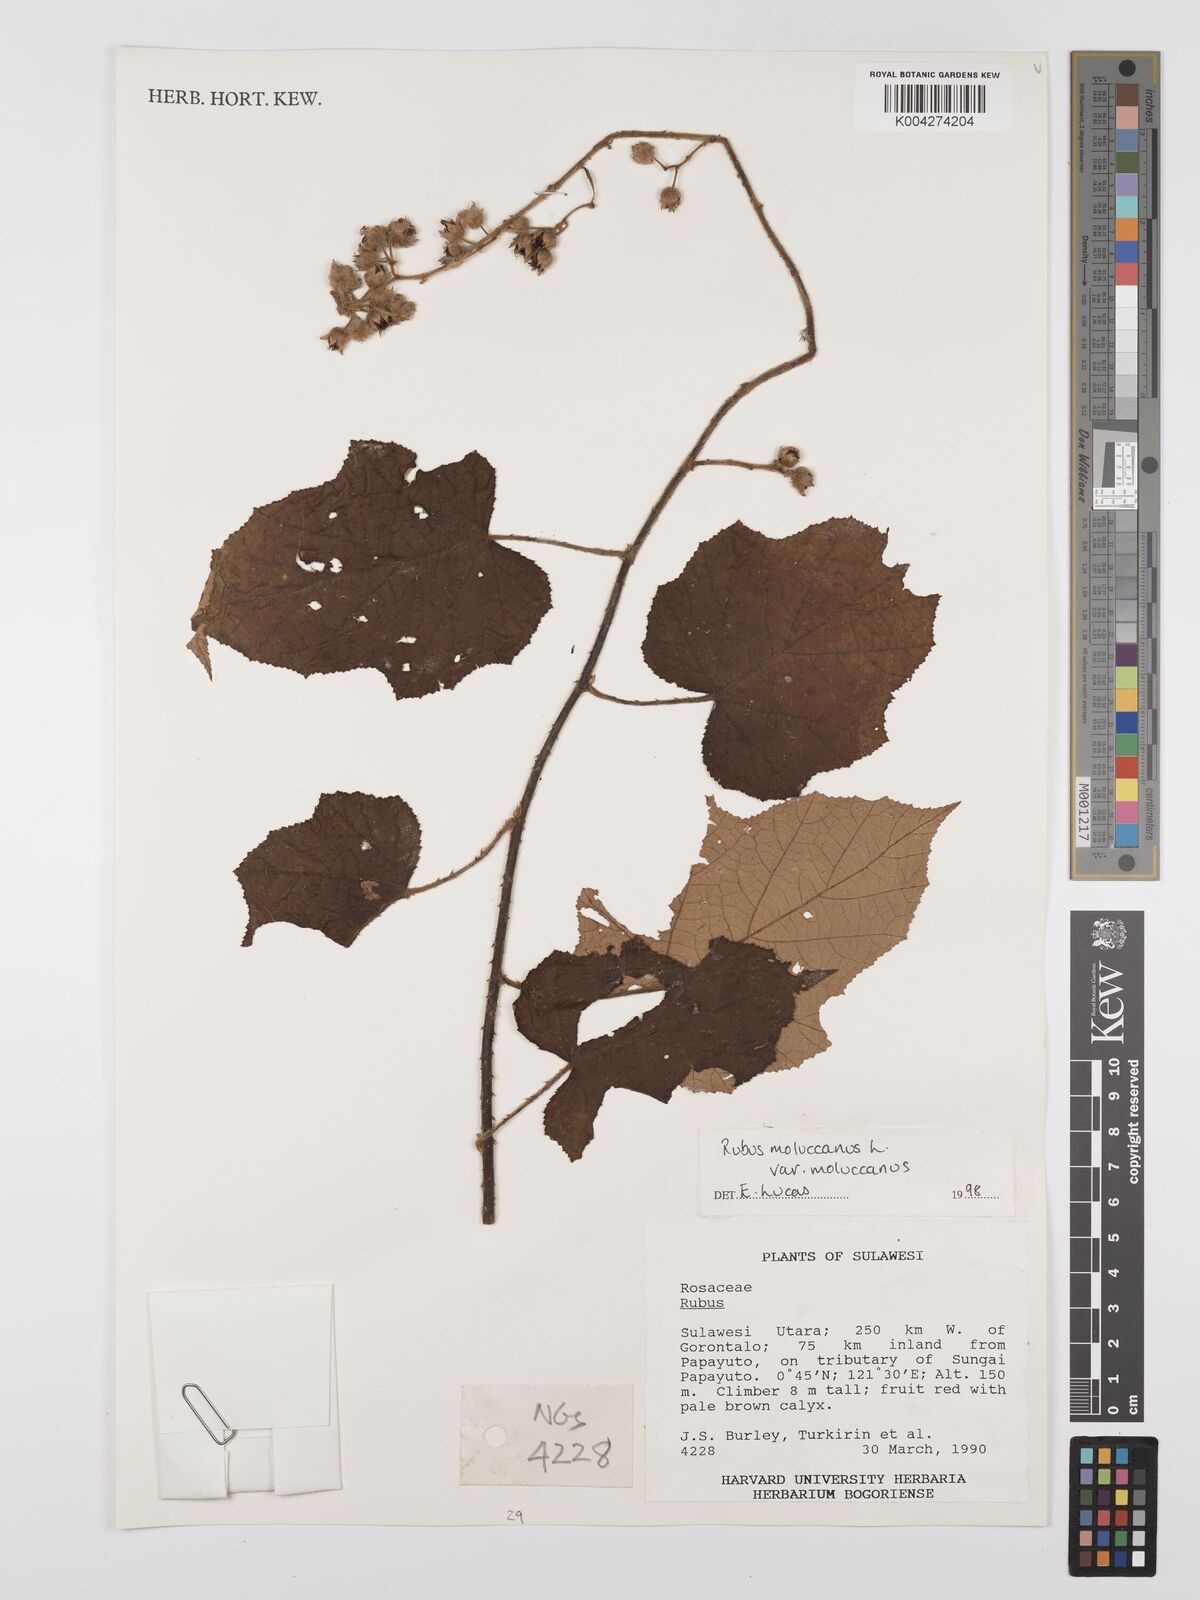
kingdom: Plantae
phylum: Tracheophyta
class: Magnoliopsida
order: Rosales
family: Rosaceae
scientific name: Rosaceae
